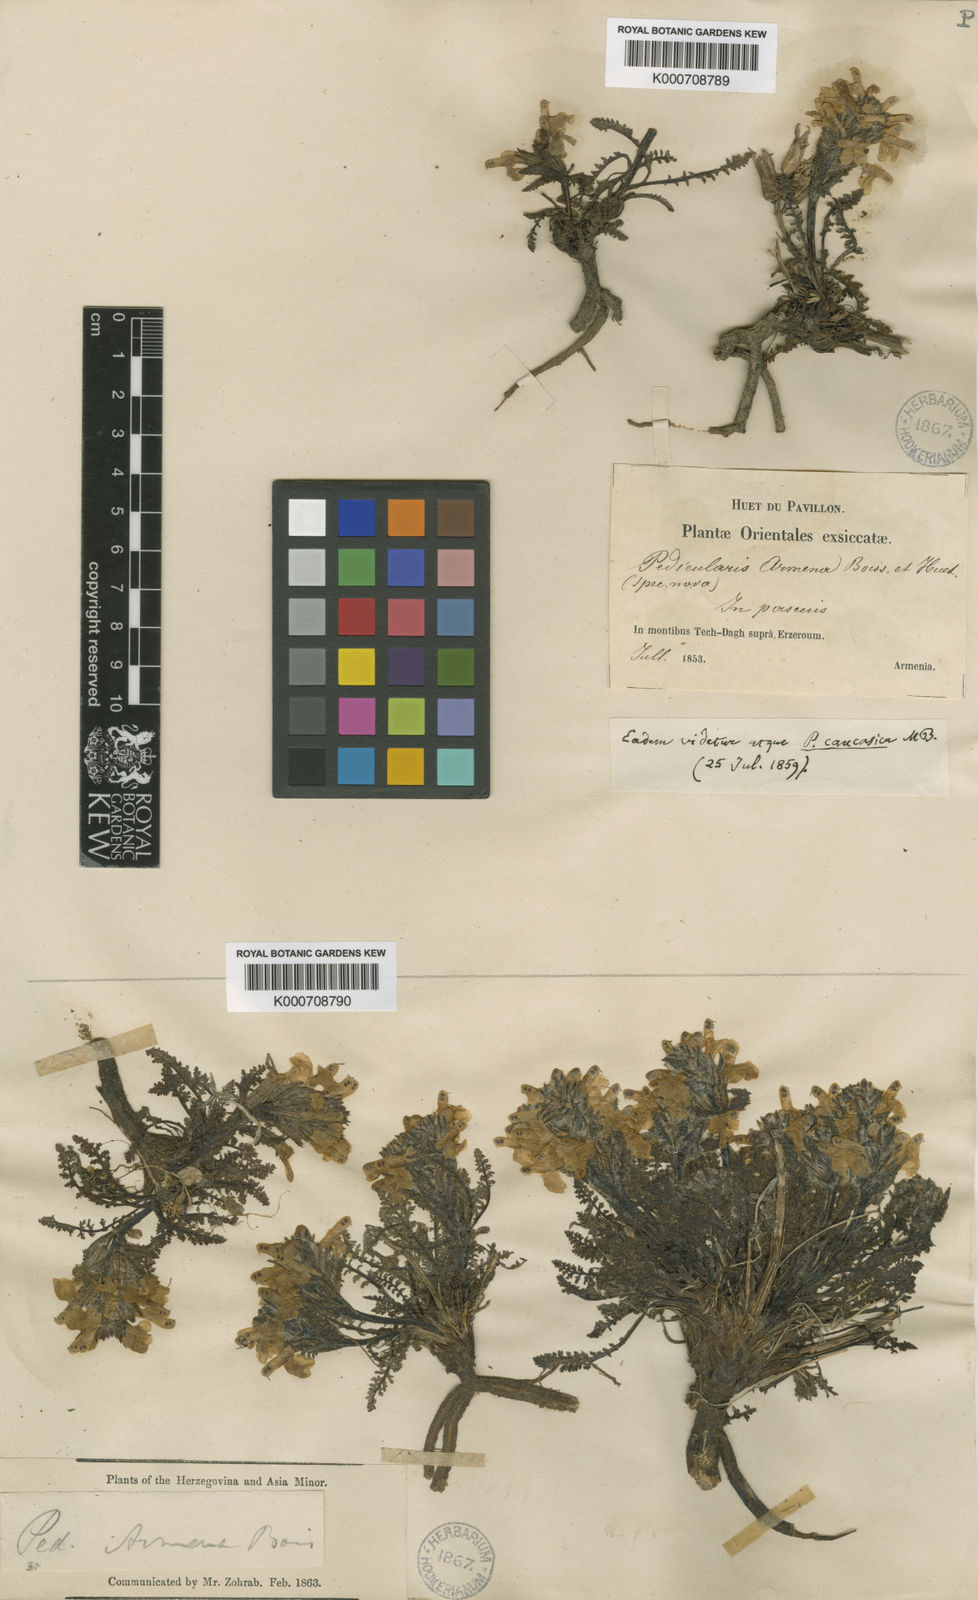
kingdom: Plantae
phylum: Tracheophyta
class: Magnoliopsida
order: Lamiales
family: Orobanchaceae
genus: Pedicularis
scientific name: Pedicularis caucasica
